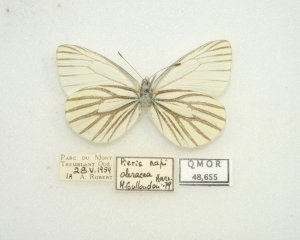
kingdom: Animalia
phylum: Arthropoda
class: Insecta
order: Lepidoptera
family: Pieridae
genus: Pieris
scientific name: Pieris oleracea
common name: Mustard White
